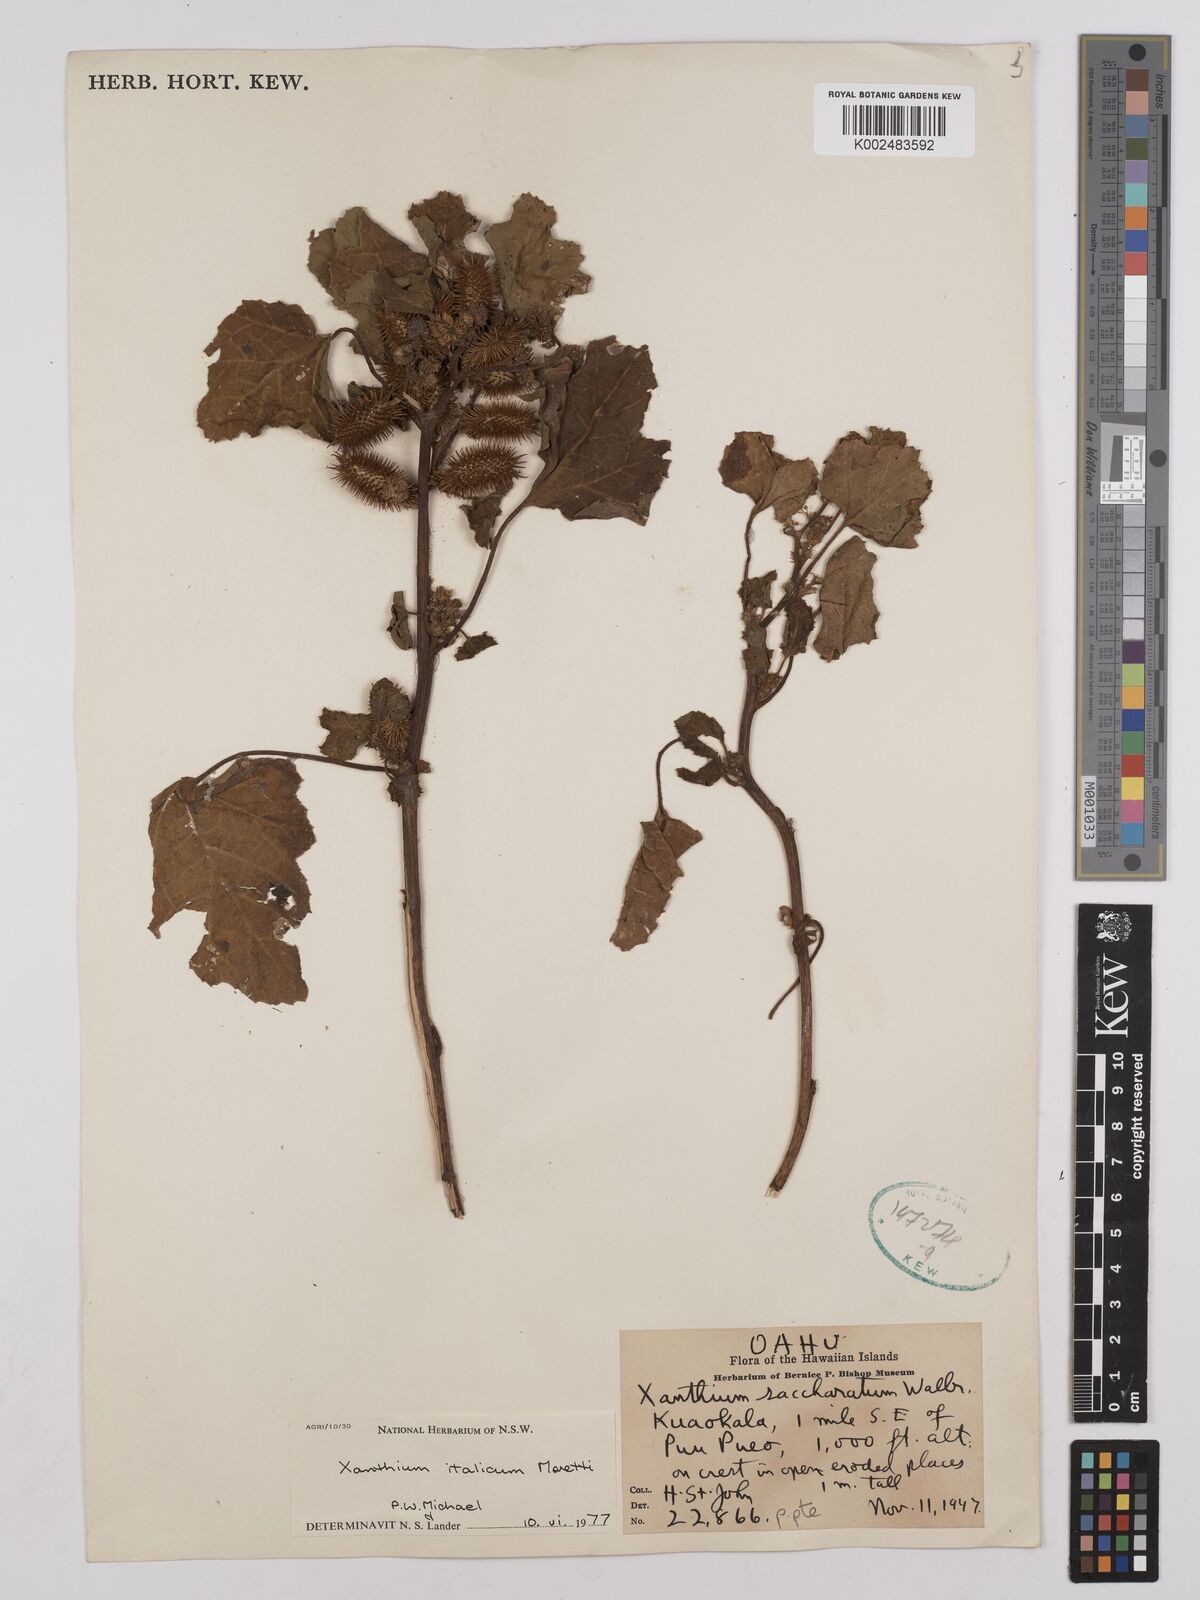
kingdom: Plantae
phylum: Tracheophyta
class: Magnoliopsida
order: Asterales
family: Asteraceae
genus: Xanthium
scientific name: Xanthium orientale
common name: Californian burr
